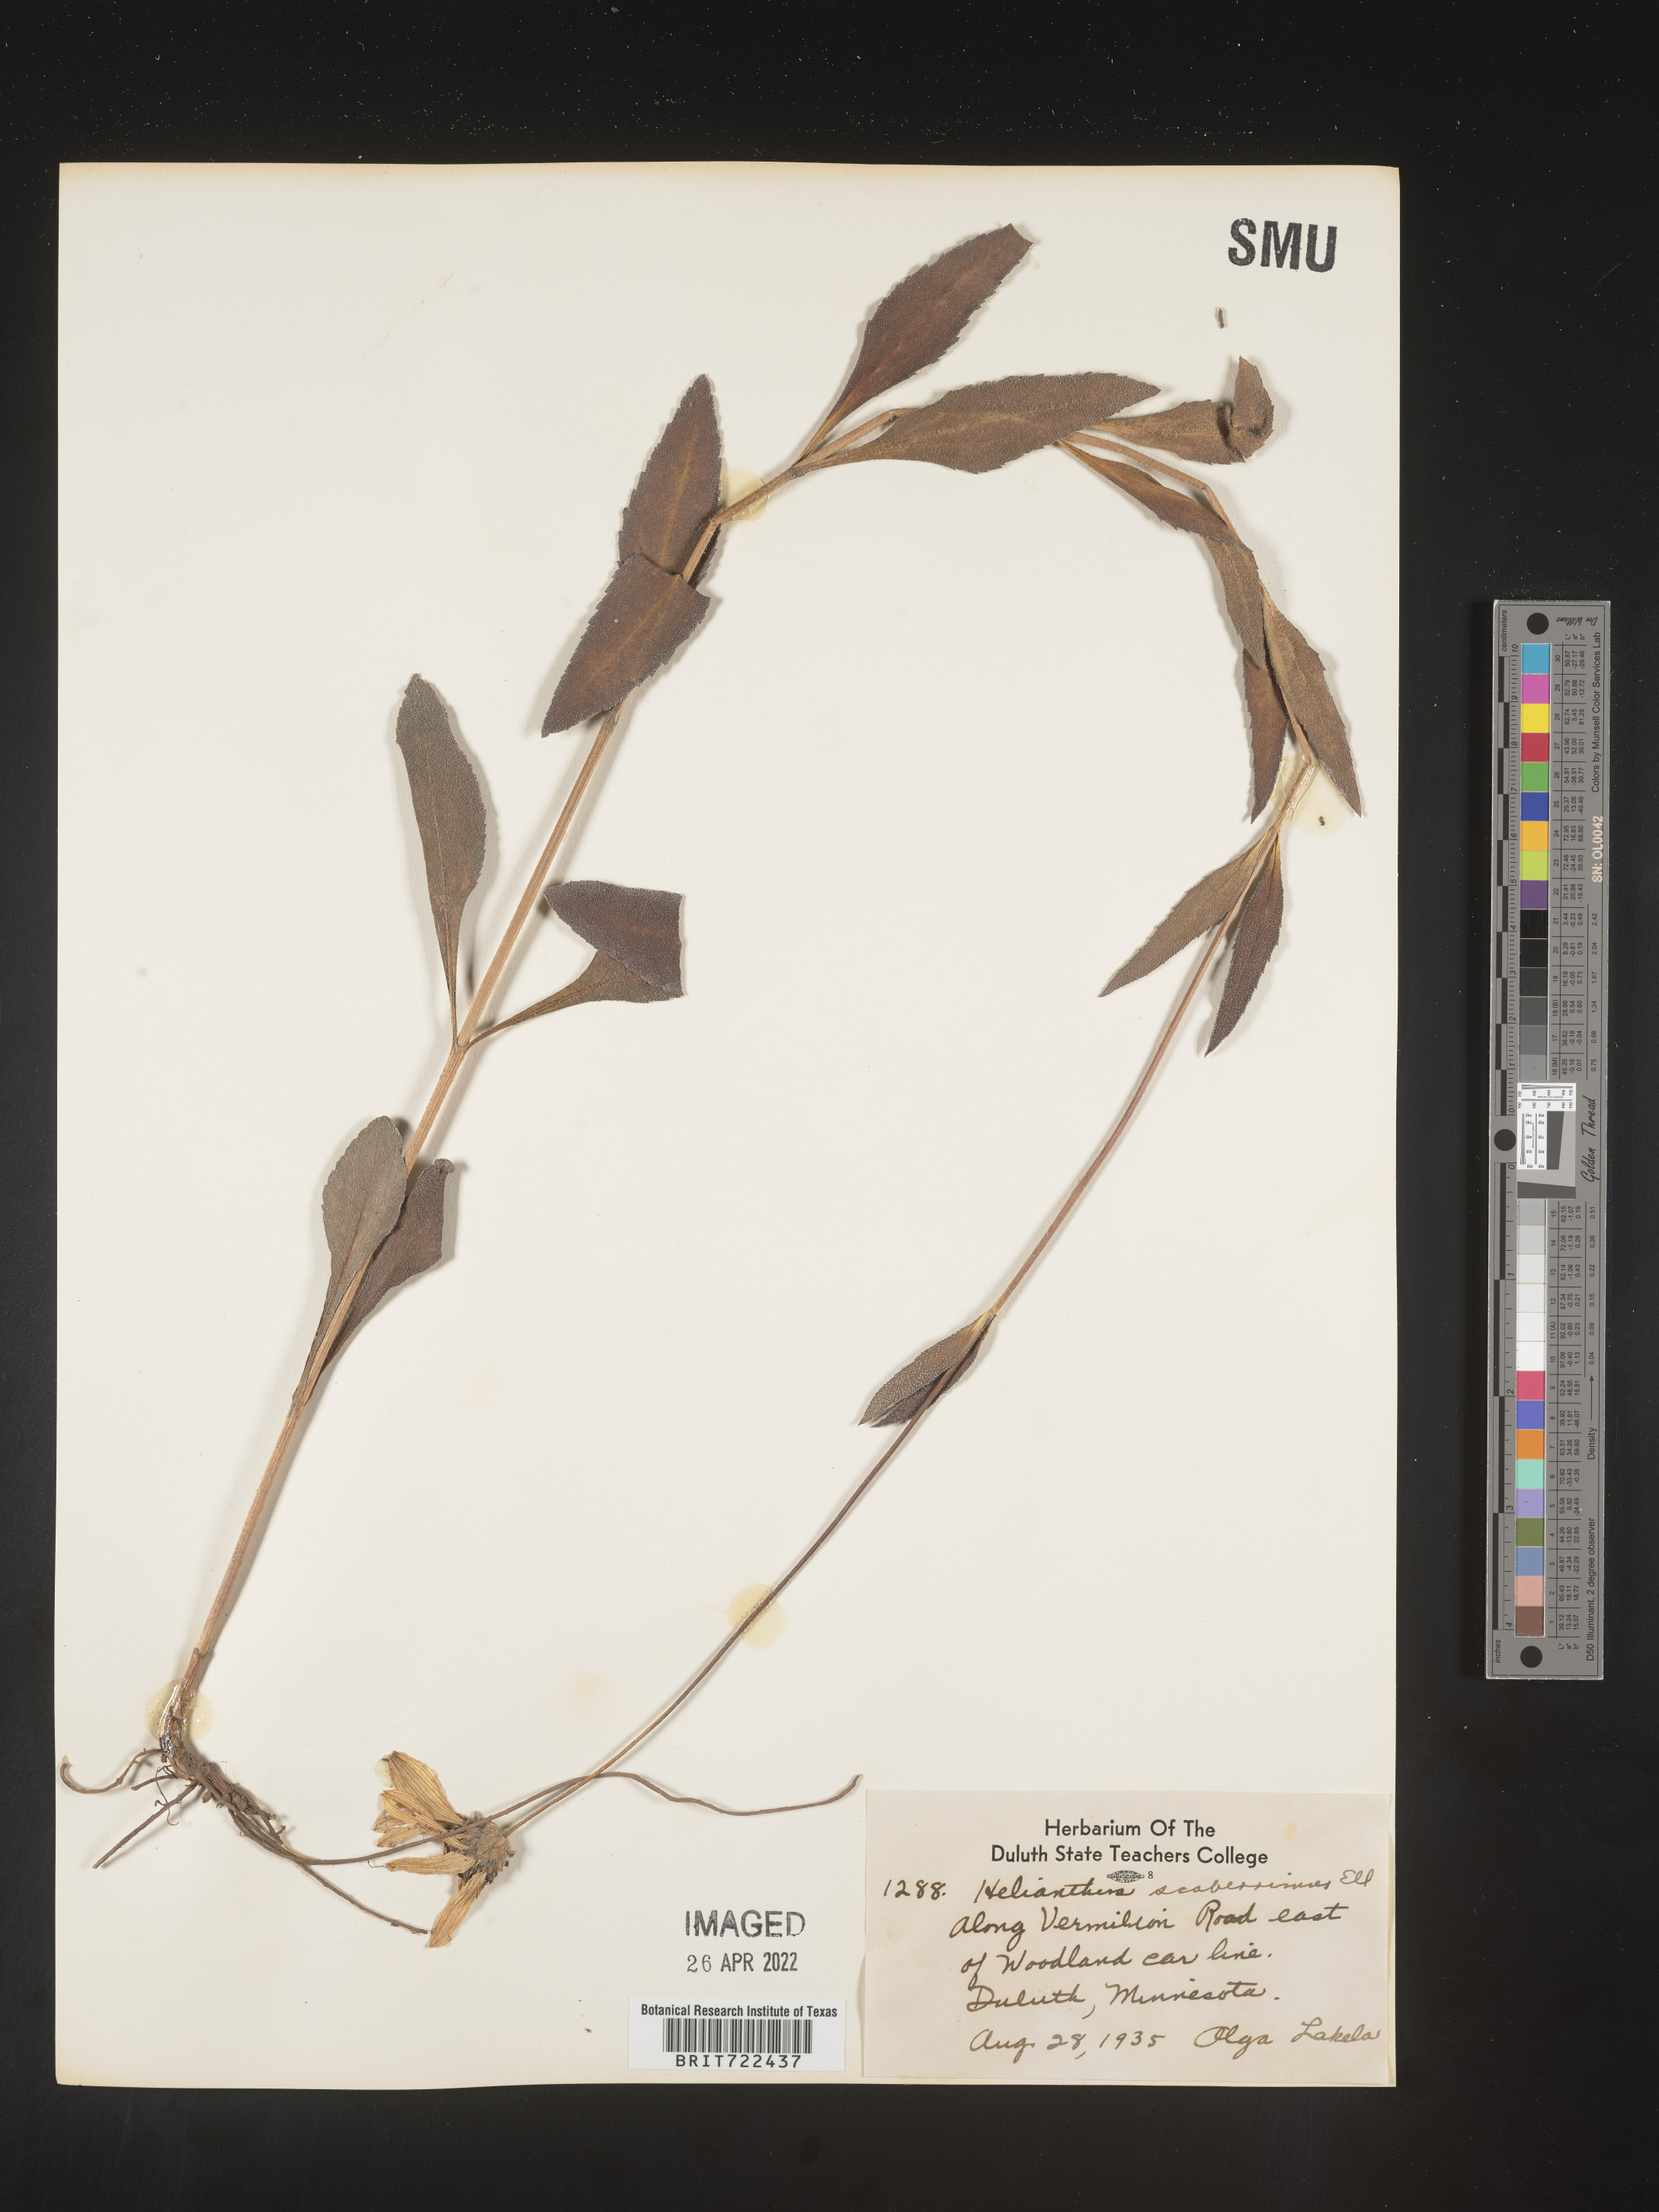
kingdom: Plantae
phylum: Tracheophyta
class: Magnoliopsida
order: Asterales
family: Asteraceae
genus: Helianthus
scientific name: Helianthus laetiflorus
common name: Perennial sunflower
